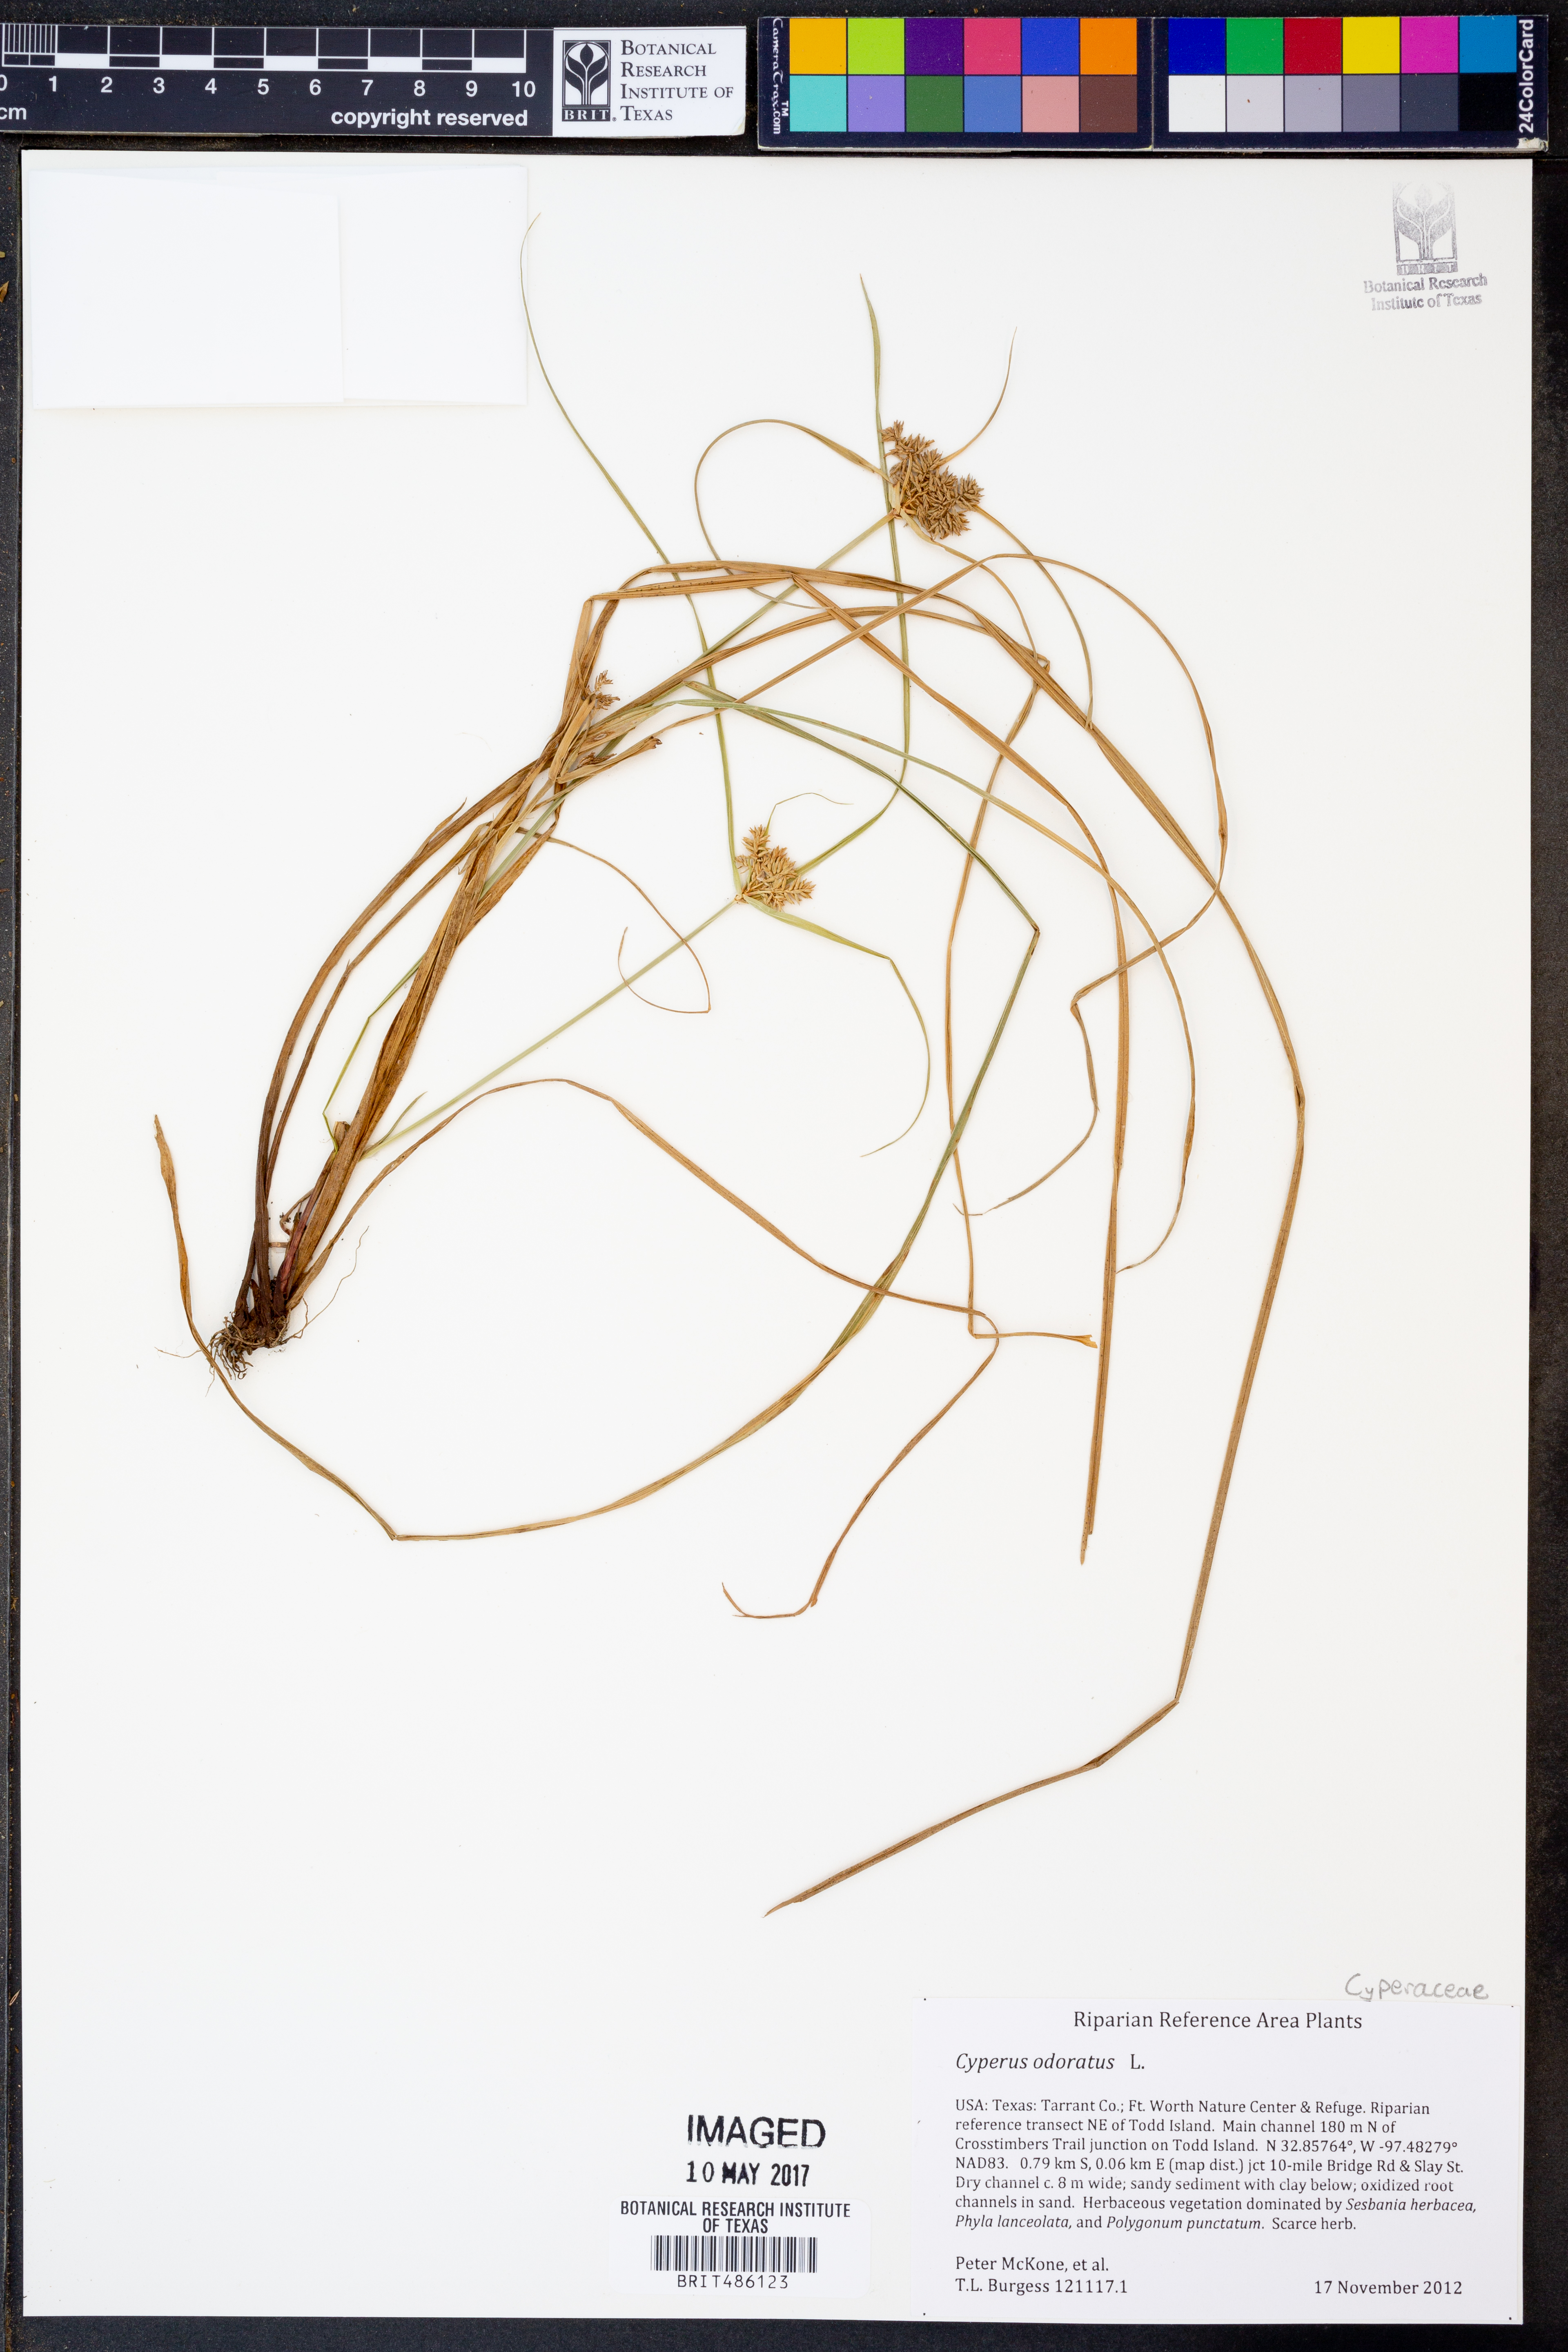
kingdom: Plantae
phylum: Tracheophyta
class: Liliopsida
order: Poales
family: Cyperaceae
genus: Cyperus
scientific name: Cyperus odoratus
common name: Fragrant flatsedge
